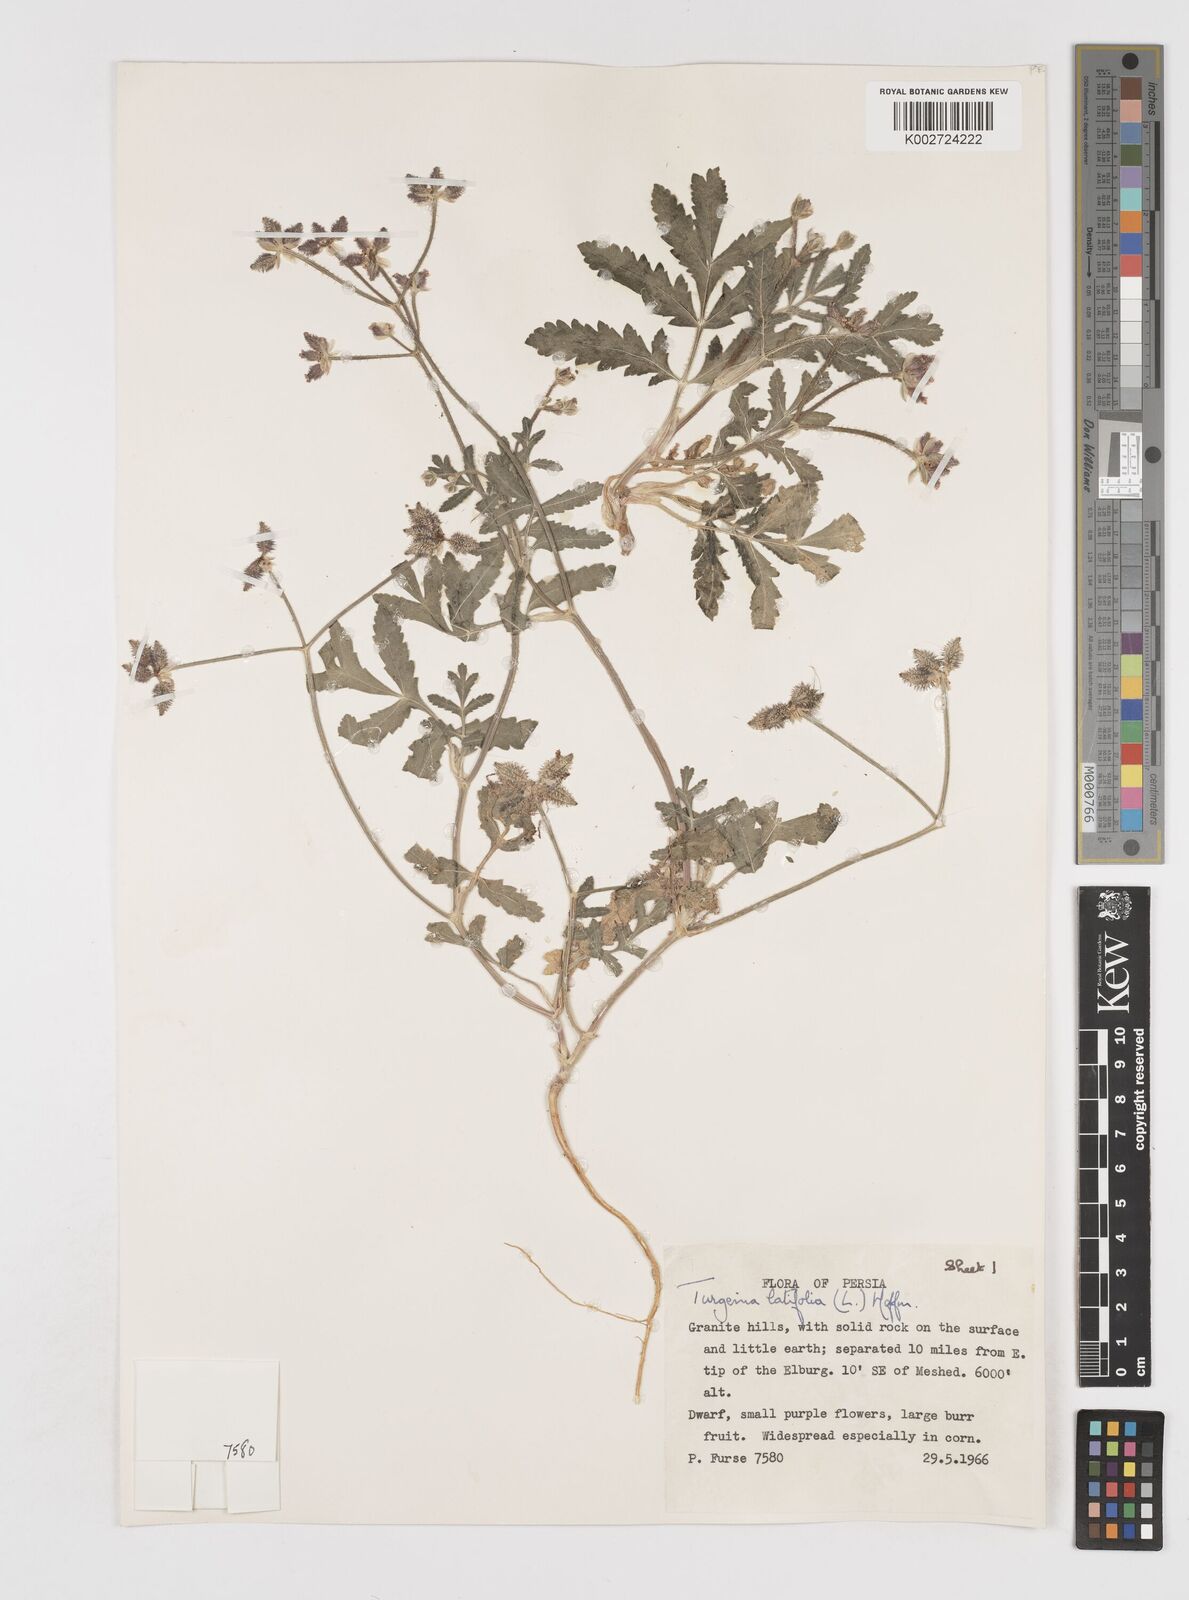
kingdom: Plantae
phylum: Tracheophyta
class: Magnoliopsida
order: Apiales
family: Apiaceae
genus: Turgenia
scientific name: Turgenia latifolia
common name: Greater bur-parsley
